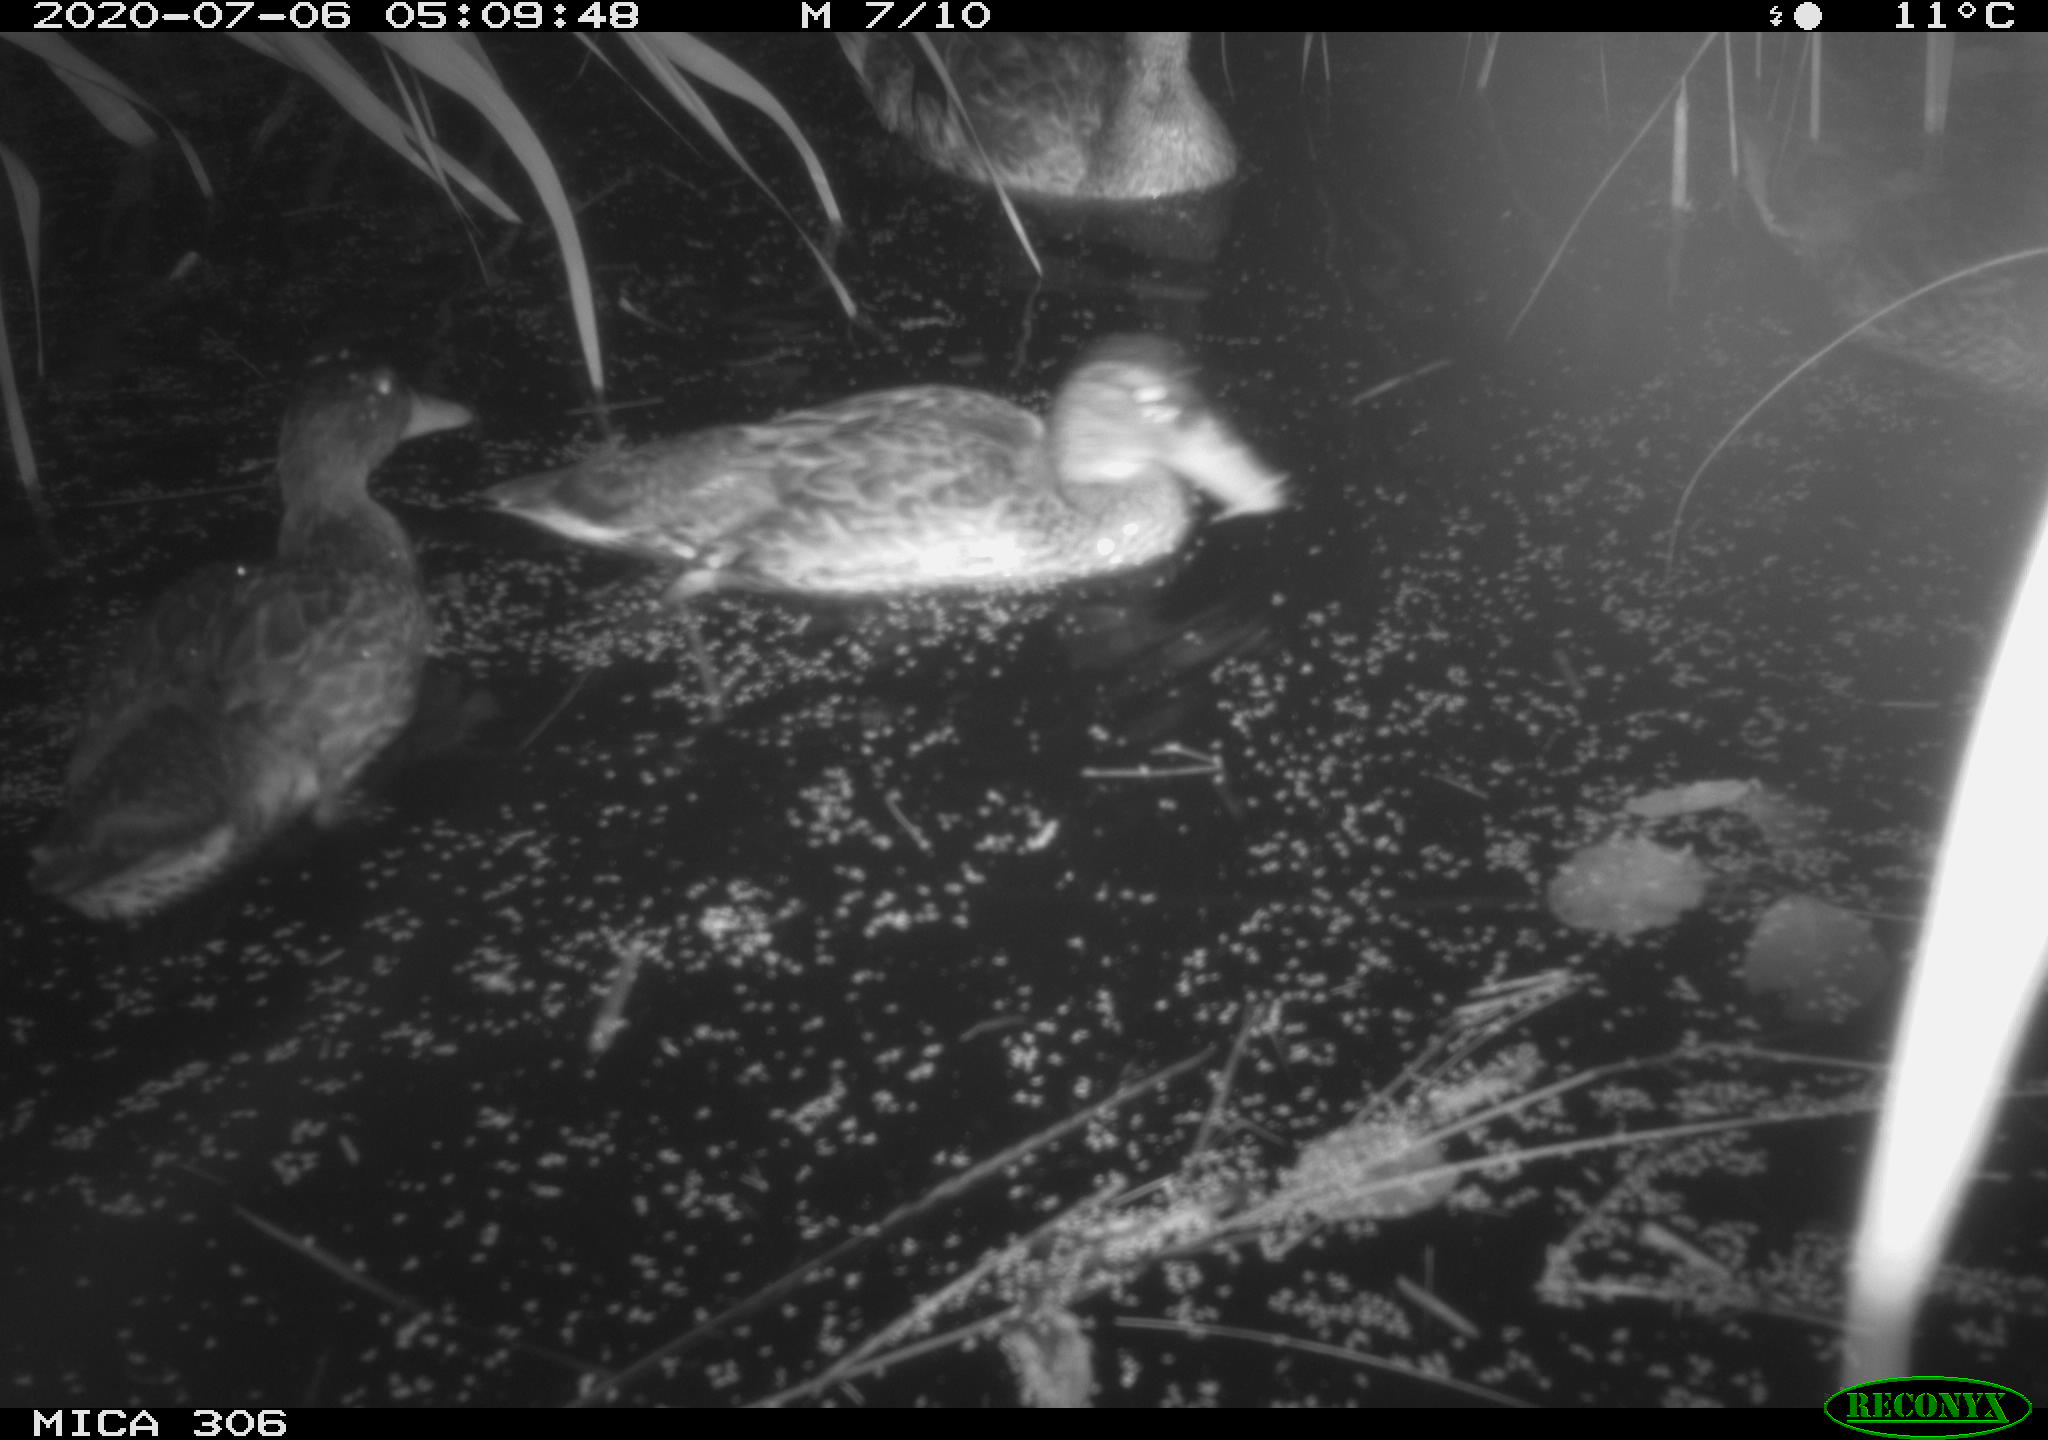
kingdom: Animalia
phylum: Chordata
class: Aves
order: Anseriformes
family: Anatidae
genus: Anas
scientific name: Anas platyrhynchos
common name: Mallard
